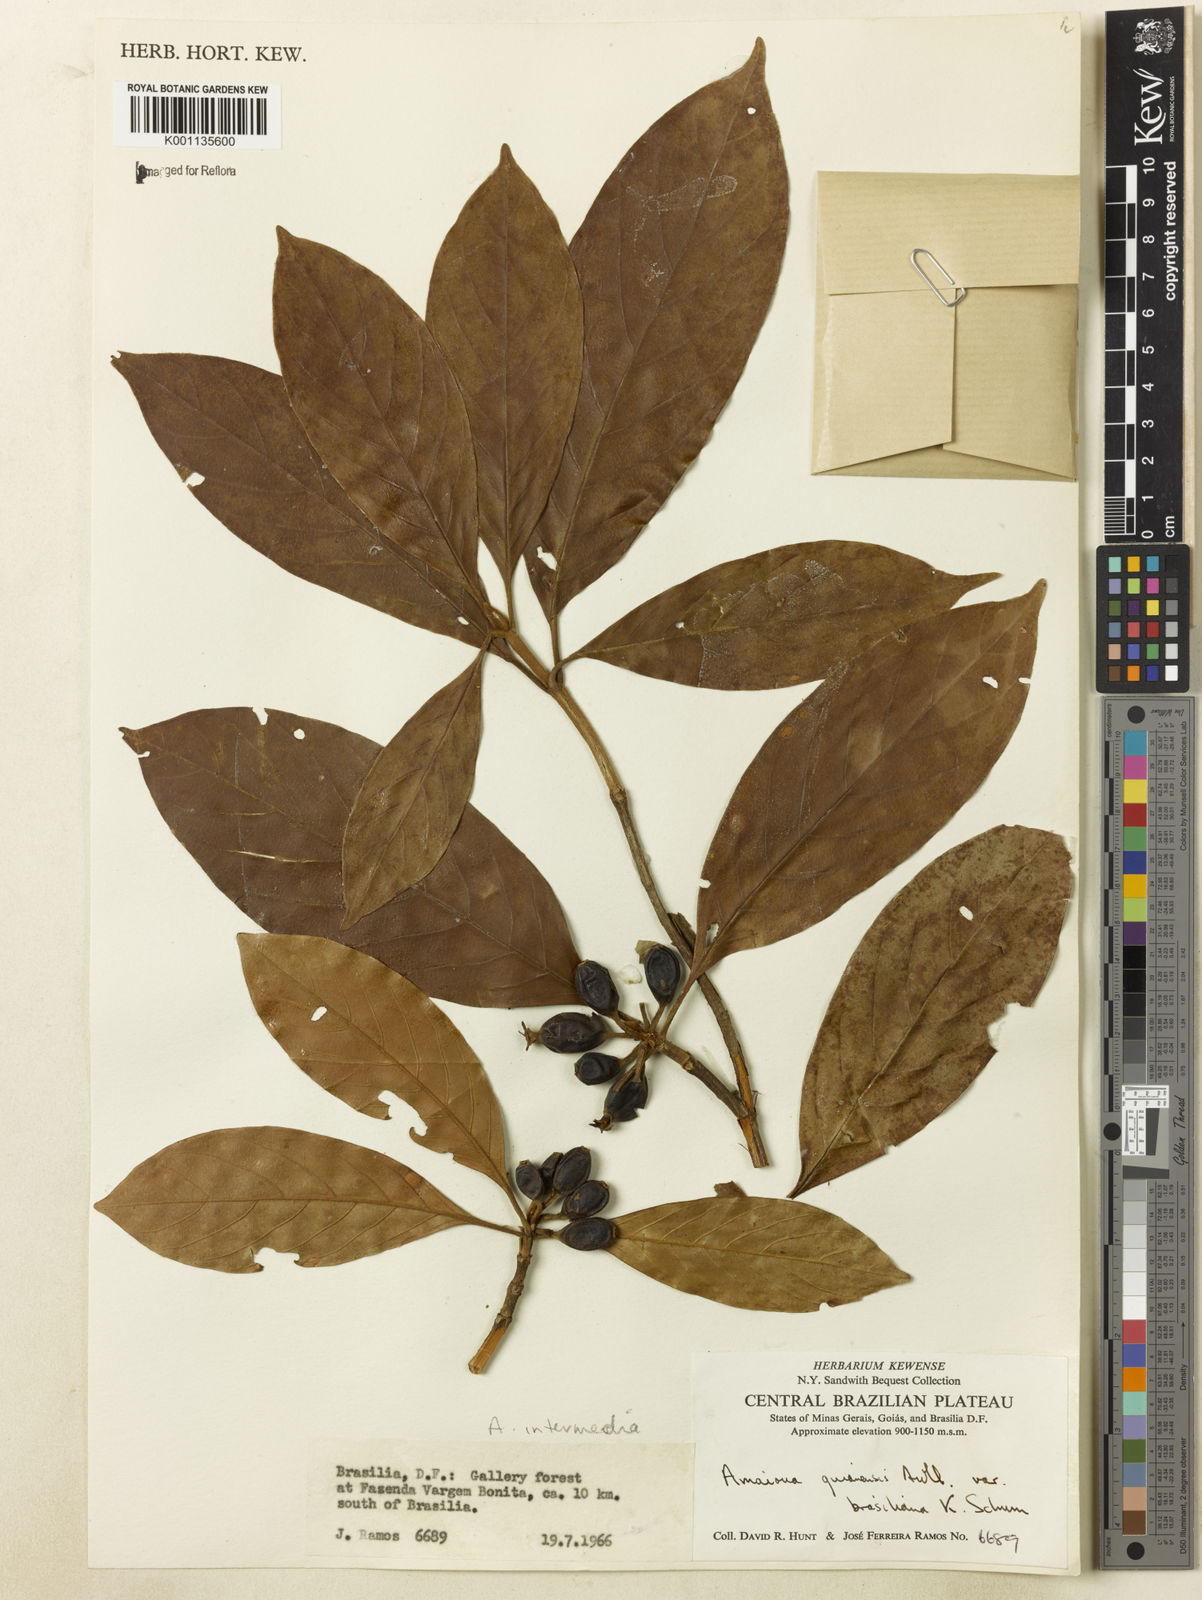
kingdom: Plantae
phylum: Tracheophyta
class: Magnoliopsida
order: Gentianales
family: Rubiaceae
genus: Amaioua
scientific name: Amaioua intermedia
